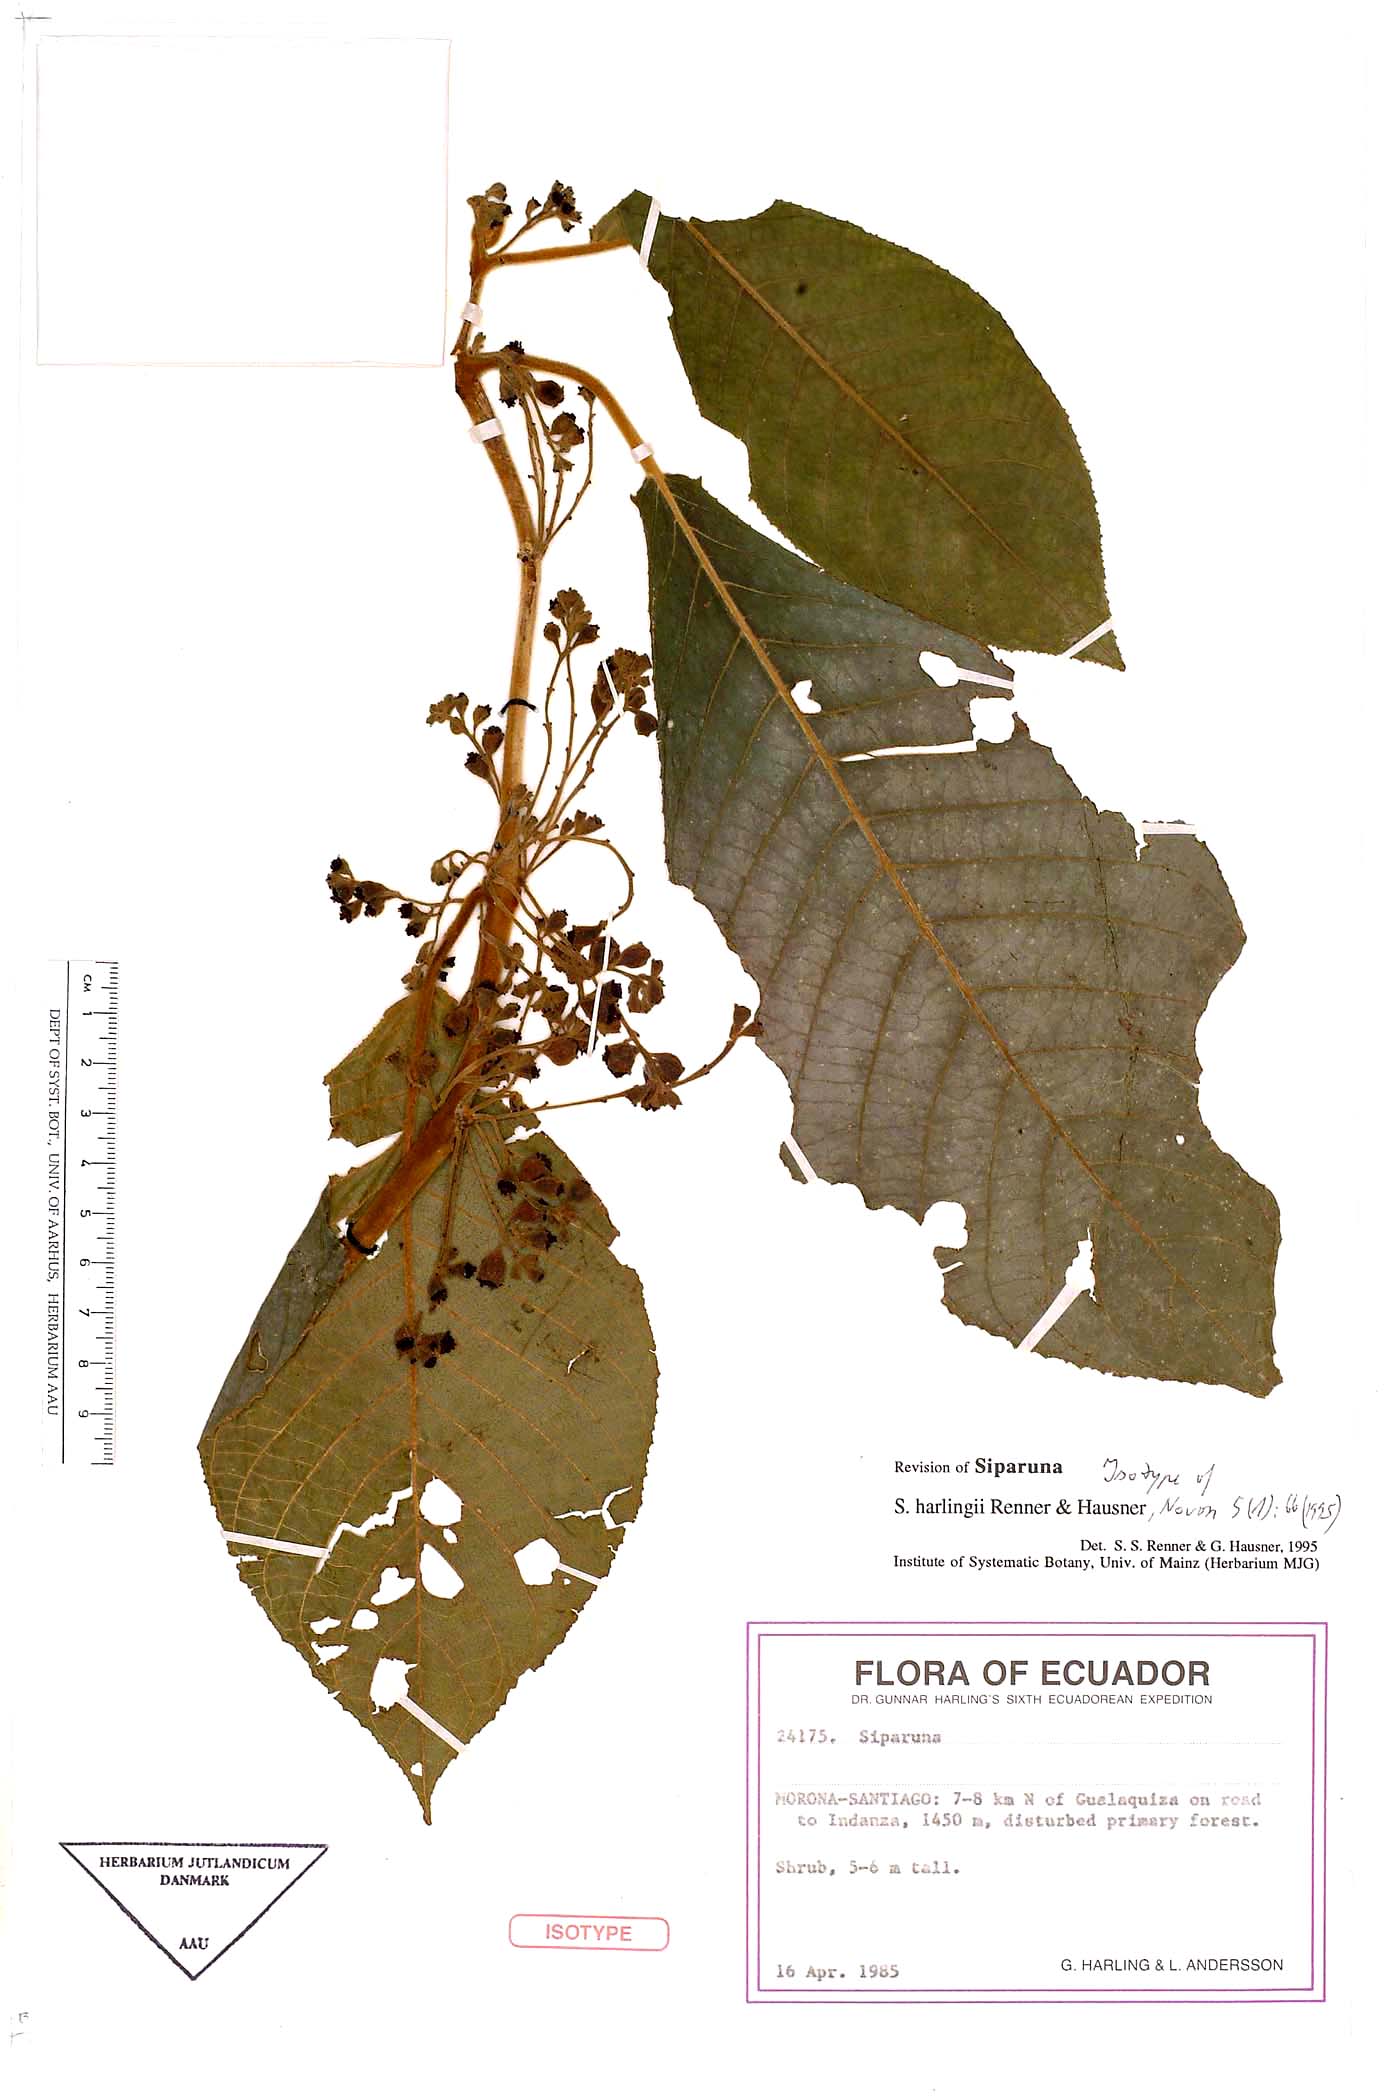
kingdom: Plantae
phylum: Tracheophyta
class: Magnoliopsida
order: Laurales
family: Siparunaceae
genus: Siparuna
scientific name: Siparuna harlingii
